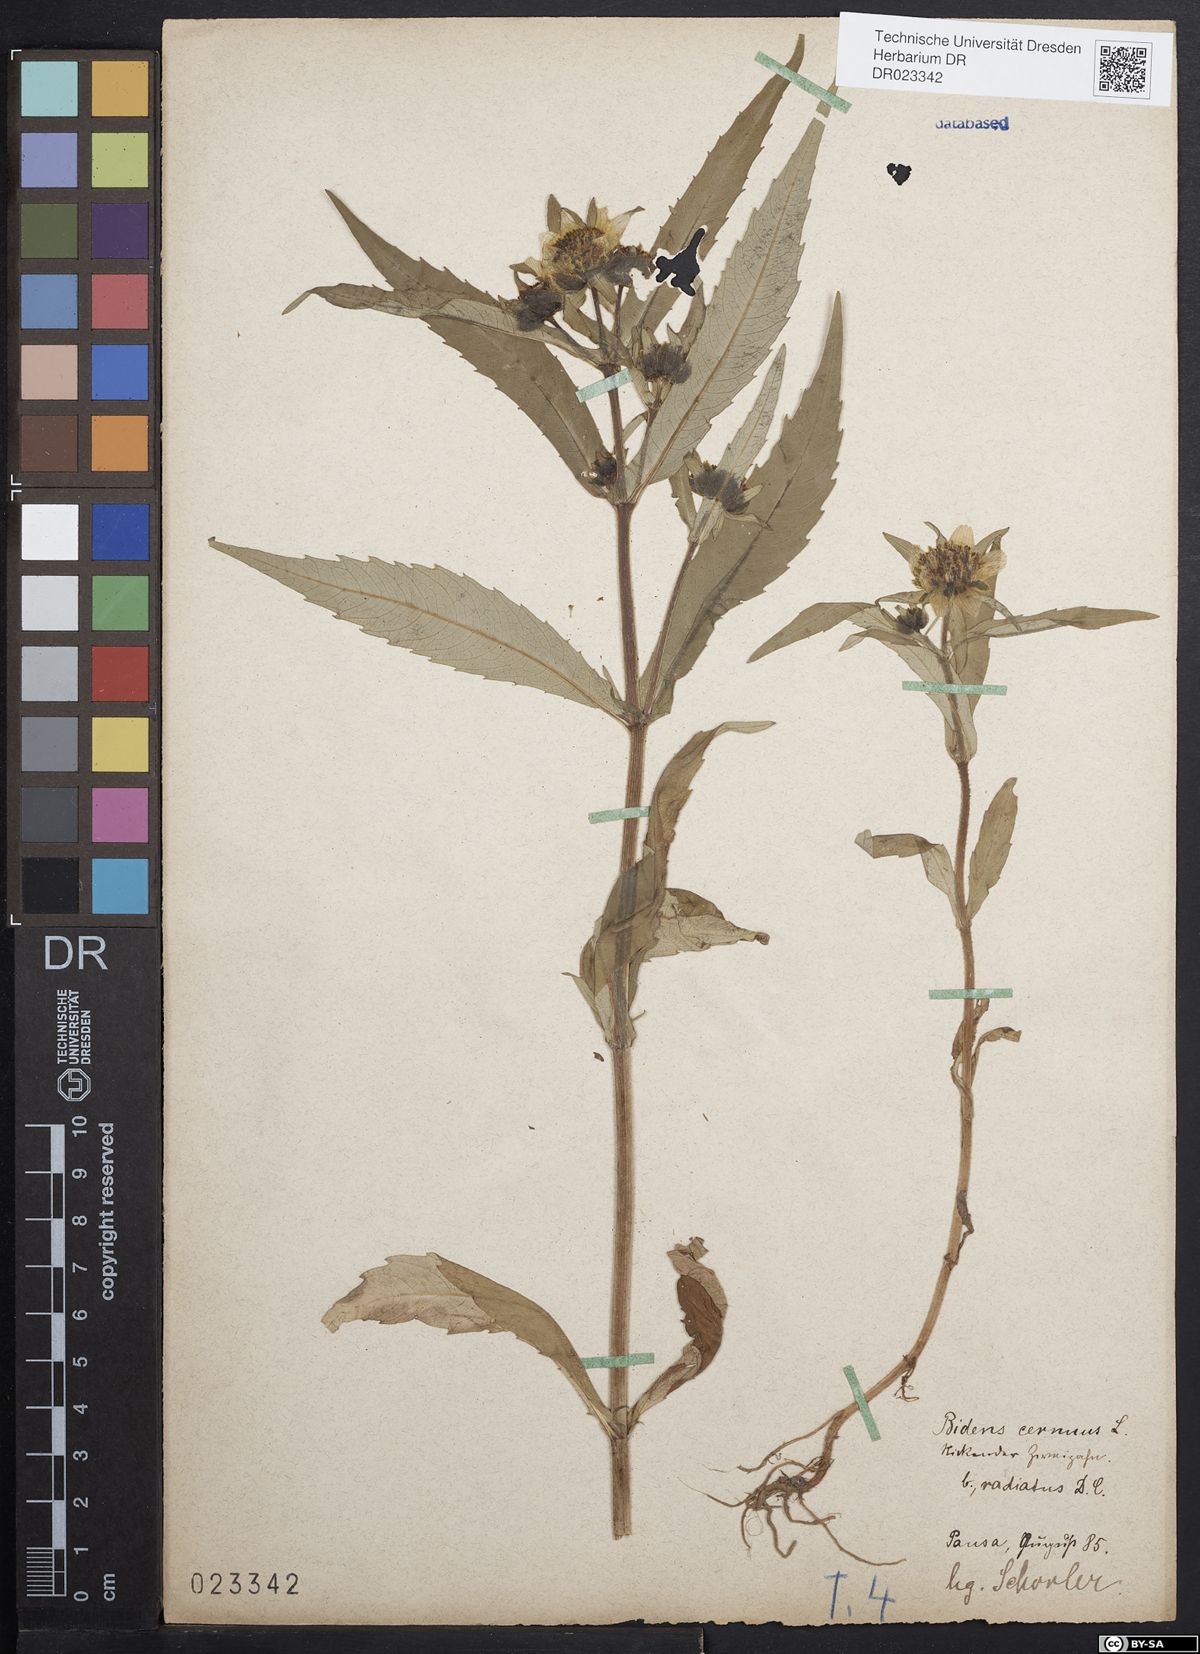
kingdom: Plantae
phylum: Tracheophyta
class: Magnoliopsida
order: Asterales
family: Asteraceae
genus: Bidens
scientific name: Bidens cernua
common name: Nodding bur-marigold
